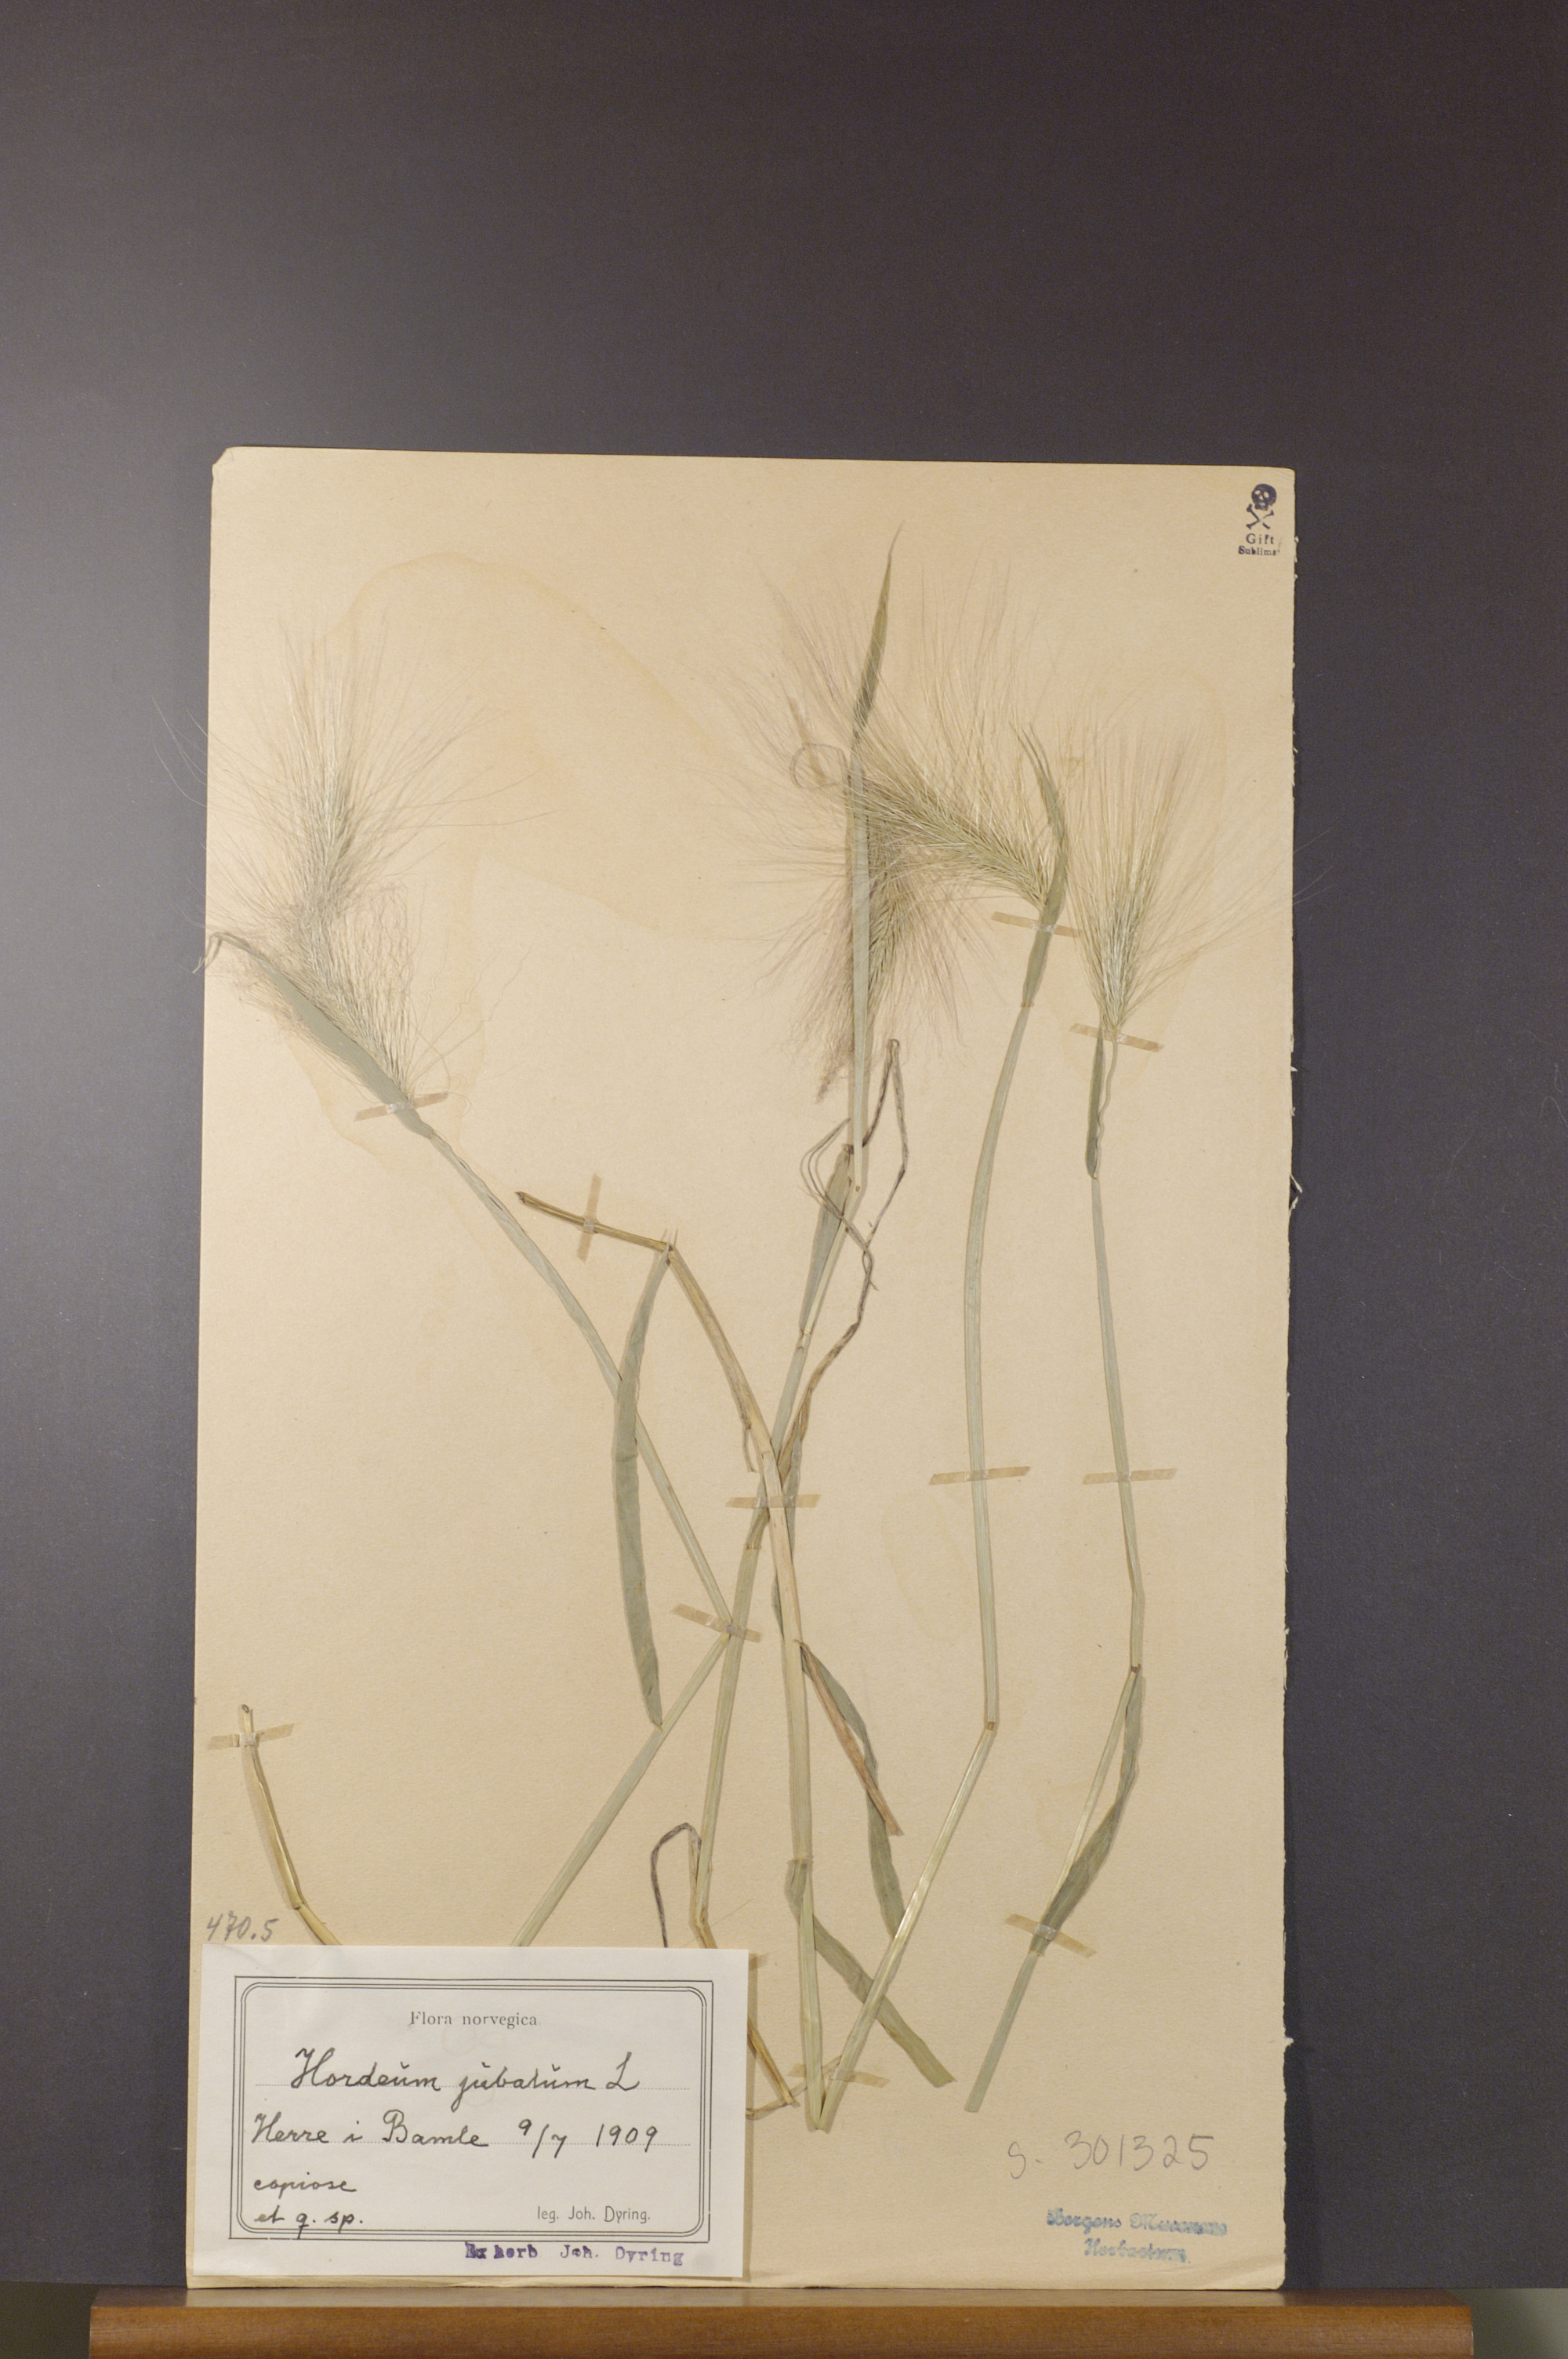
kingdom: Plantae
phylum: Tracheophyta
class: Liliopsida
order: Poales
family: Poaceae
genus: Hordeum
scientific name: Hordeum jubatum
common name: Foxtail barley
